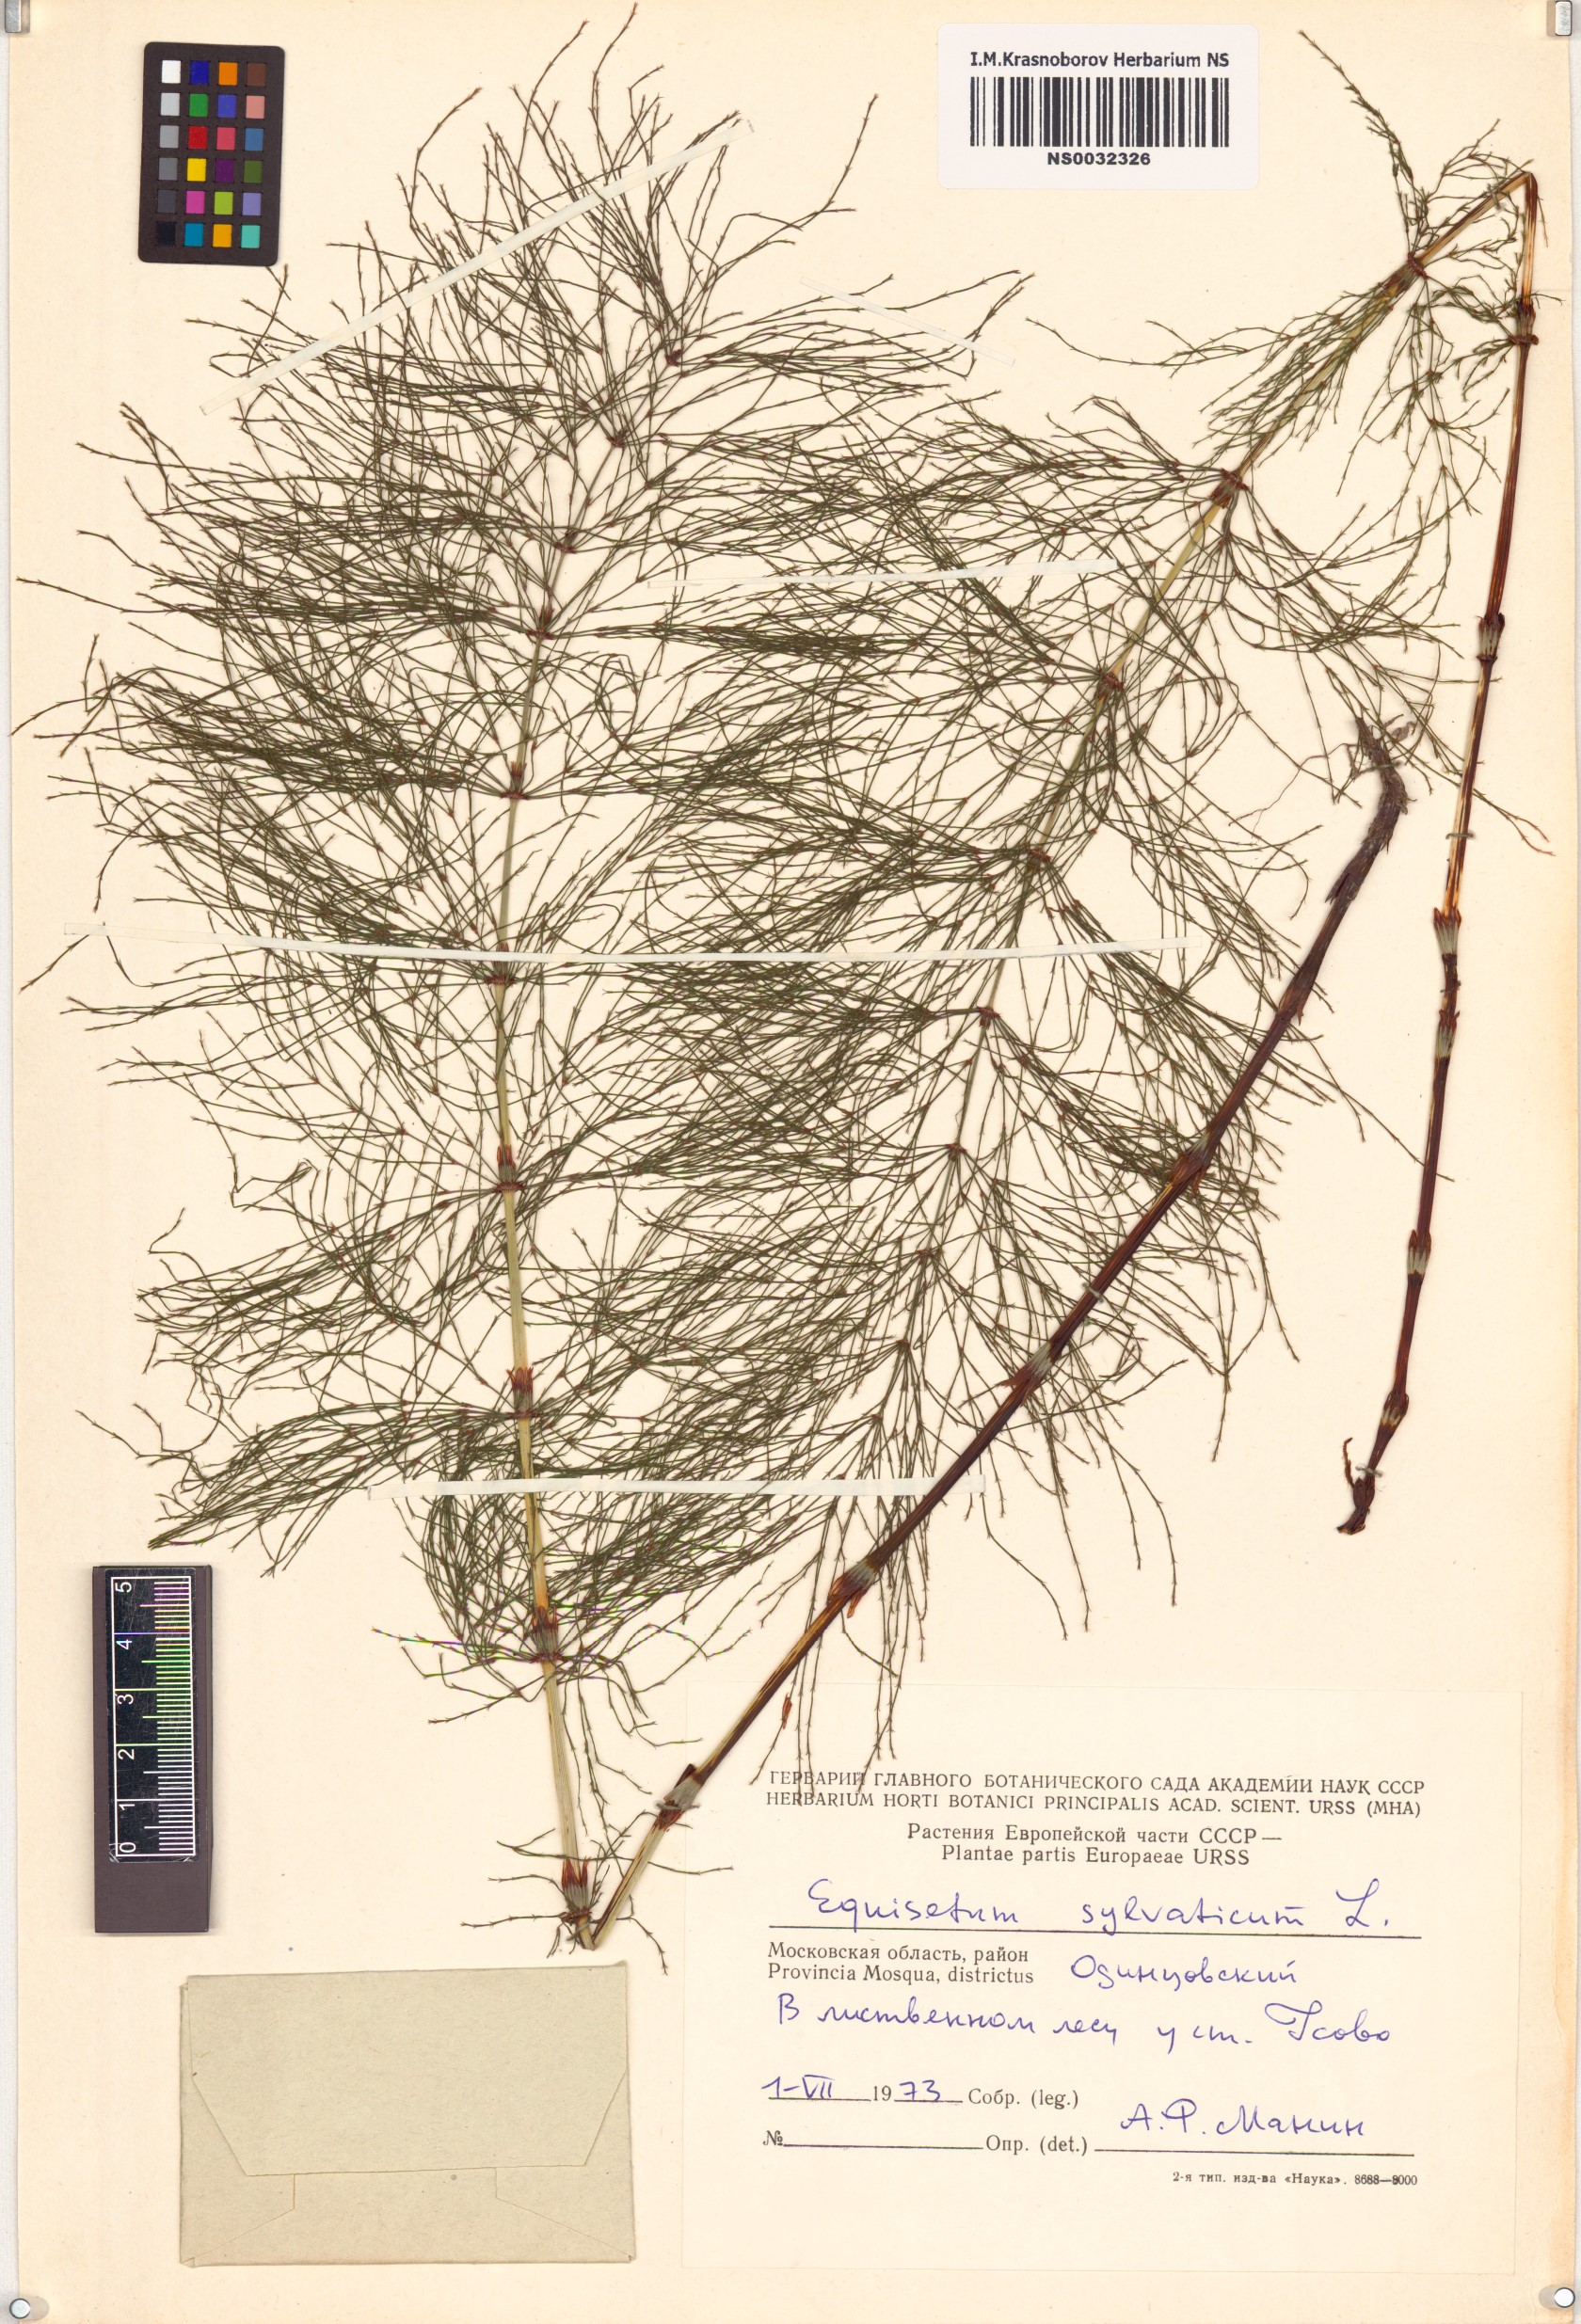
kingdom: Plantae
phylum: Tracheophyta
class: Polypodiopsida
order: Equisetales
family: Equisetaceae
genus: Equisetum
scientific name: Equisetum sylvaticum
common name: Wood horsetail
